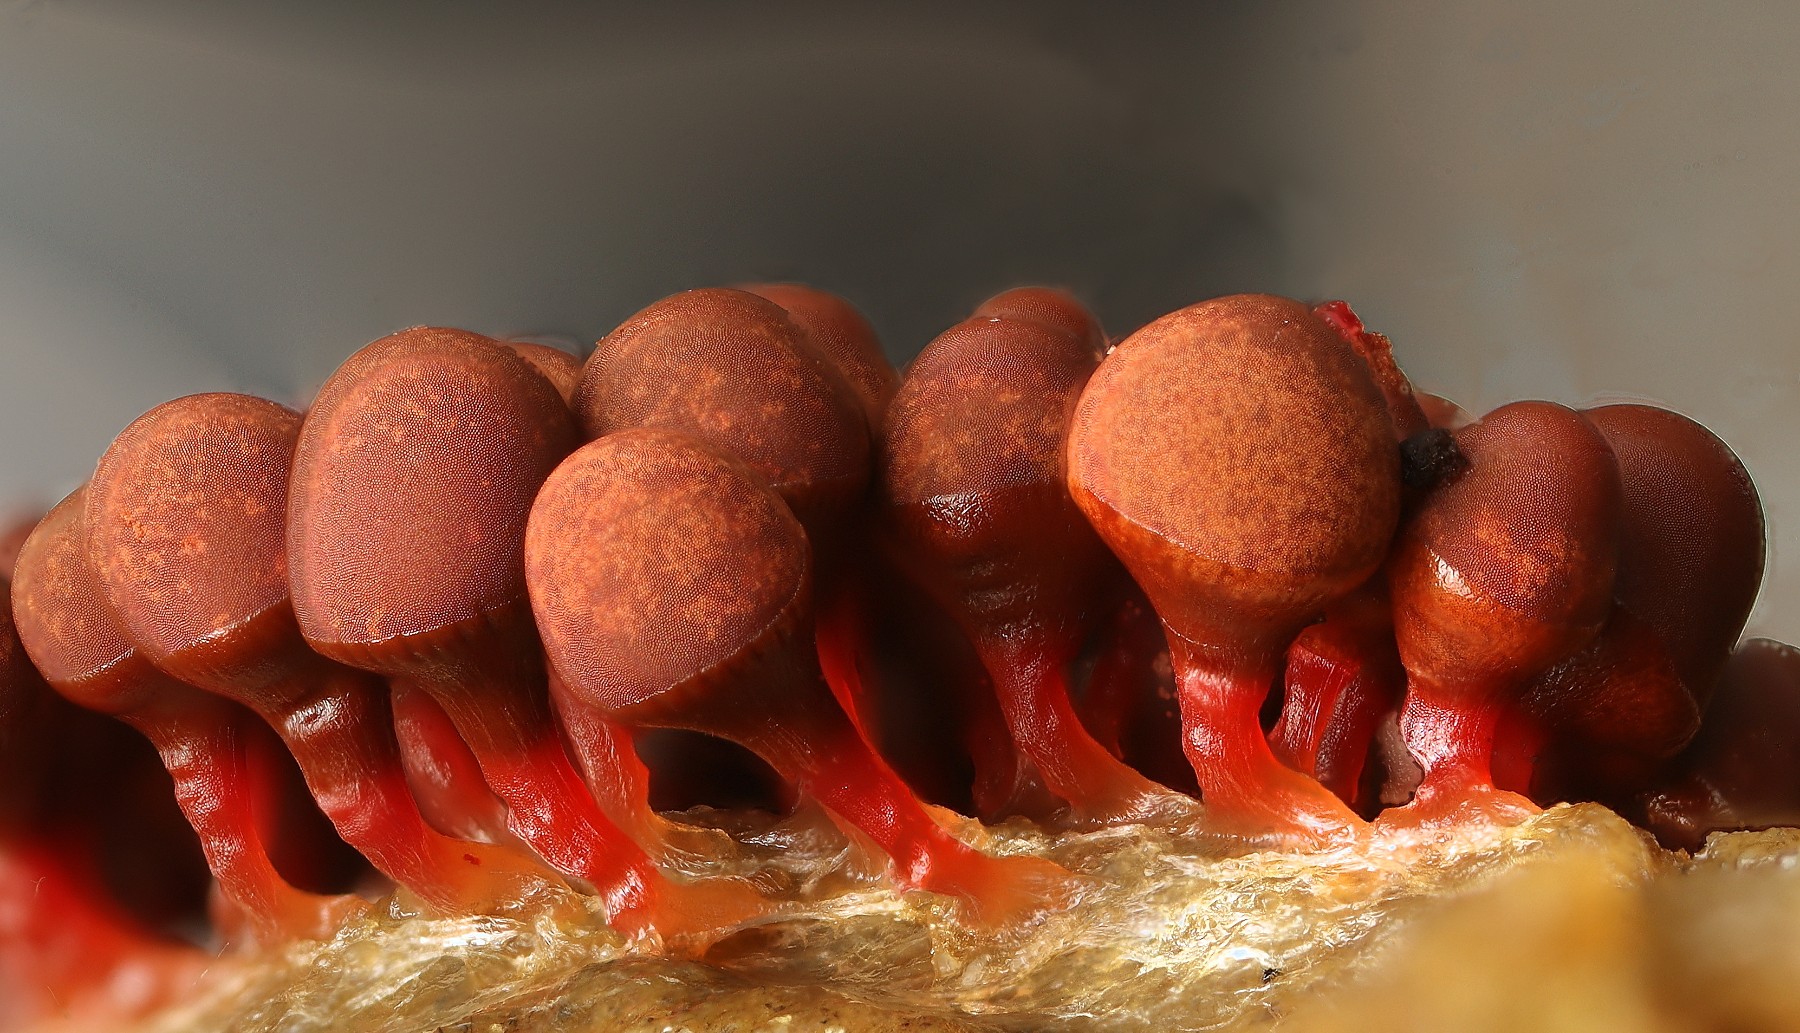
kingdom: Protozoa
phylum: Mycetozoa
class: Myxomycetes
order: Trichiales
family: Arcyriaceae
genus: Arcyria
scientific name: Arcyria ferruginea
